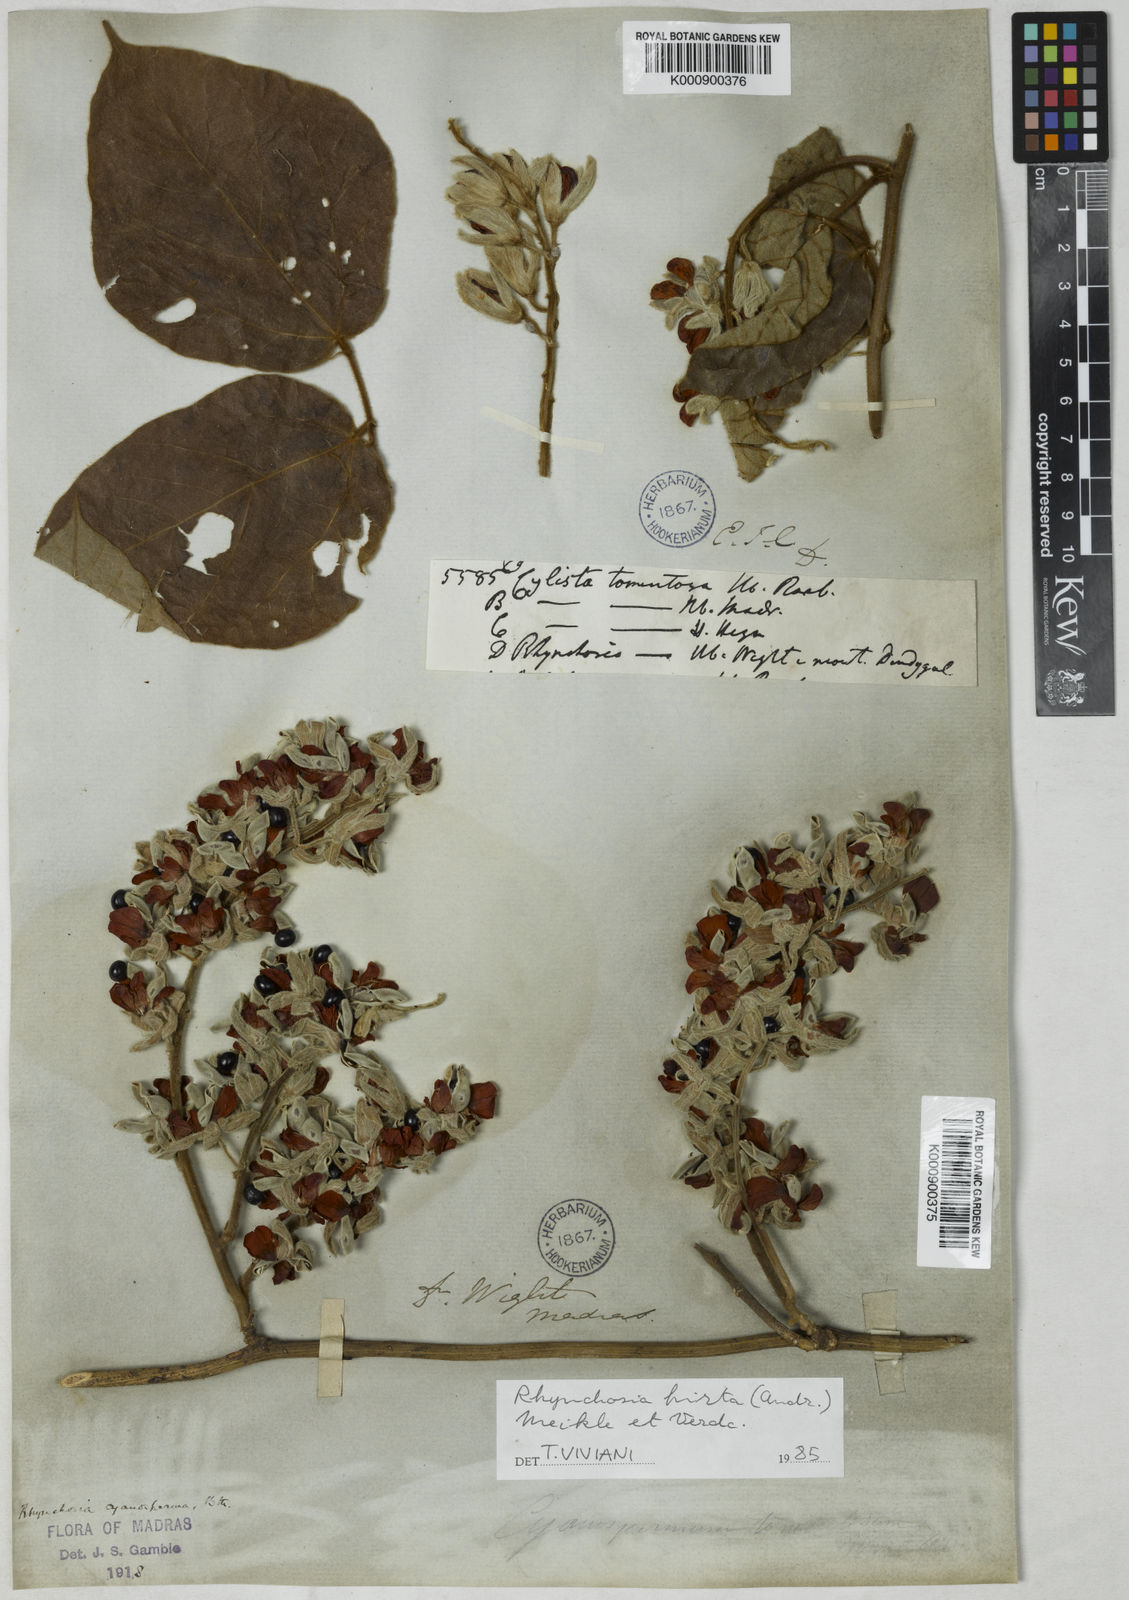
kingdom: Plantae
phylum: Tracheophyta
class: Magnoliopsida
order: Fabales
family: Fabaceae
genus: Rhynchosia
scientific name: Rhynchosia hirta
